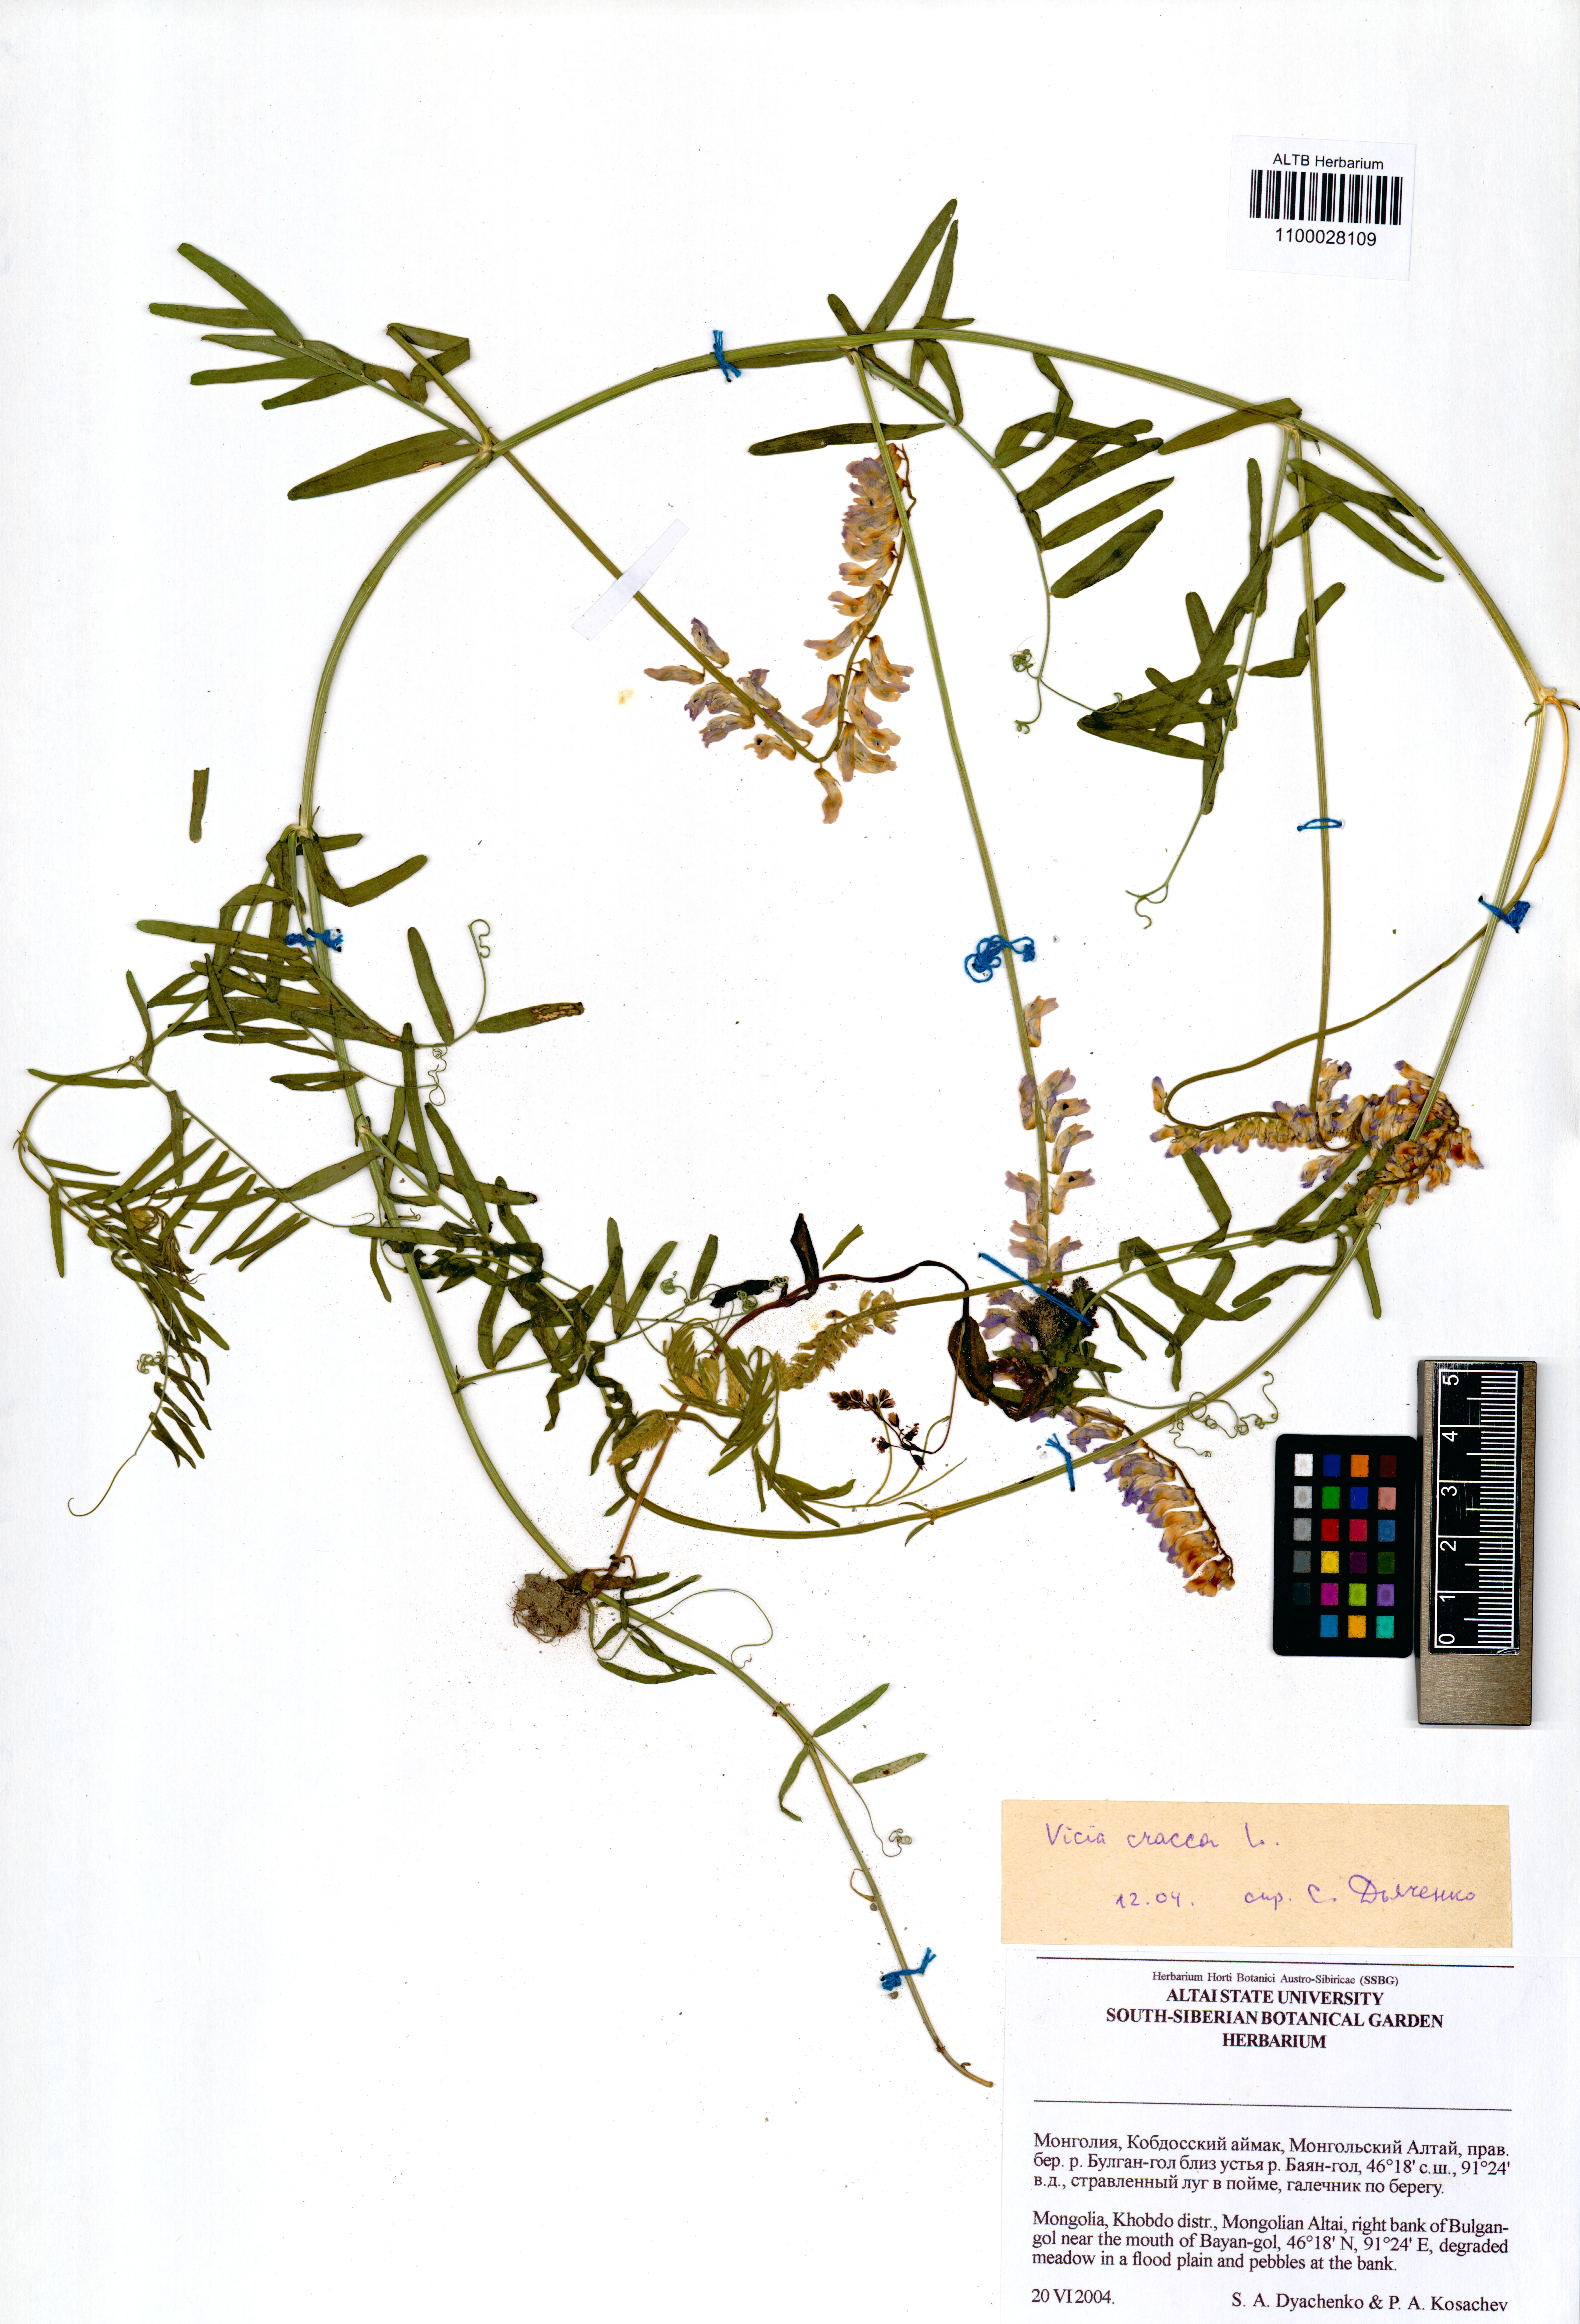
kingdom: Plantae
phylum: Tracheophyta
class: Magnoliopsida
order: Fabales
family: Fabaceae
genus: Vicia
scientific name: Vicia cracca
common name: Bird vetch
